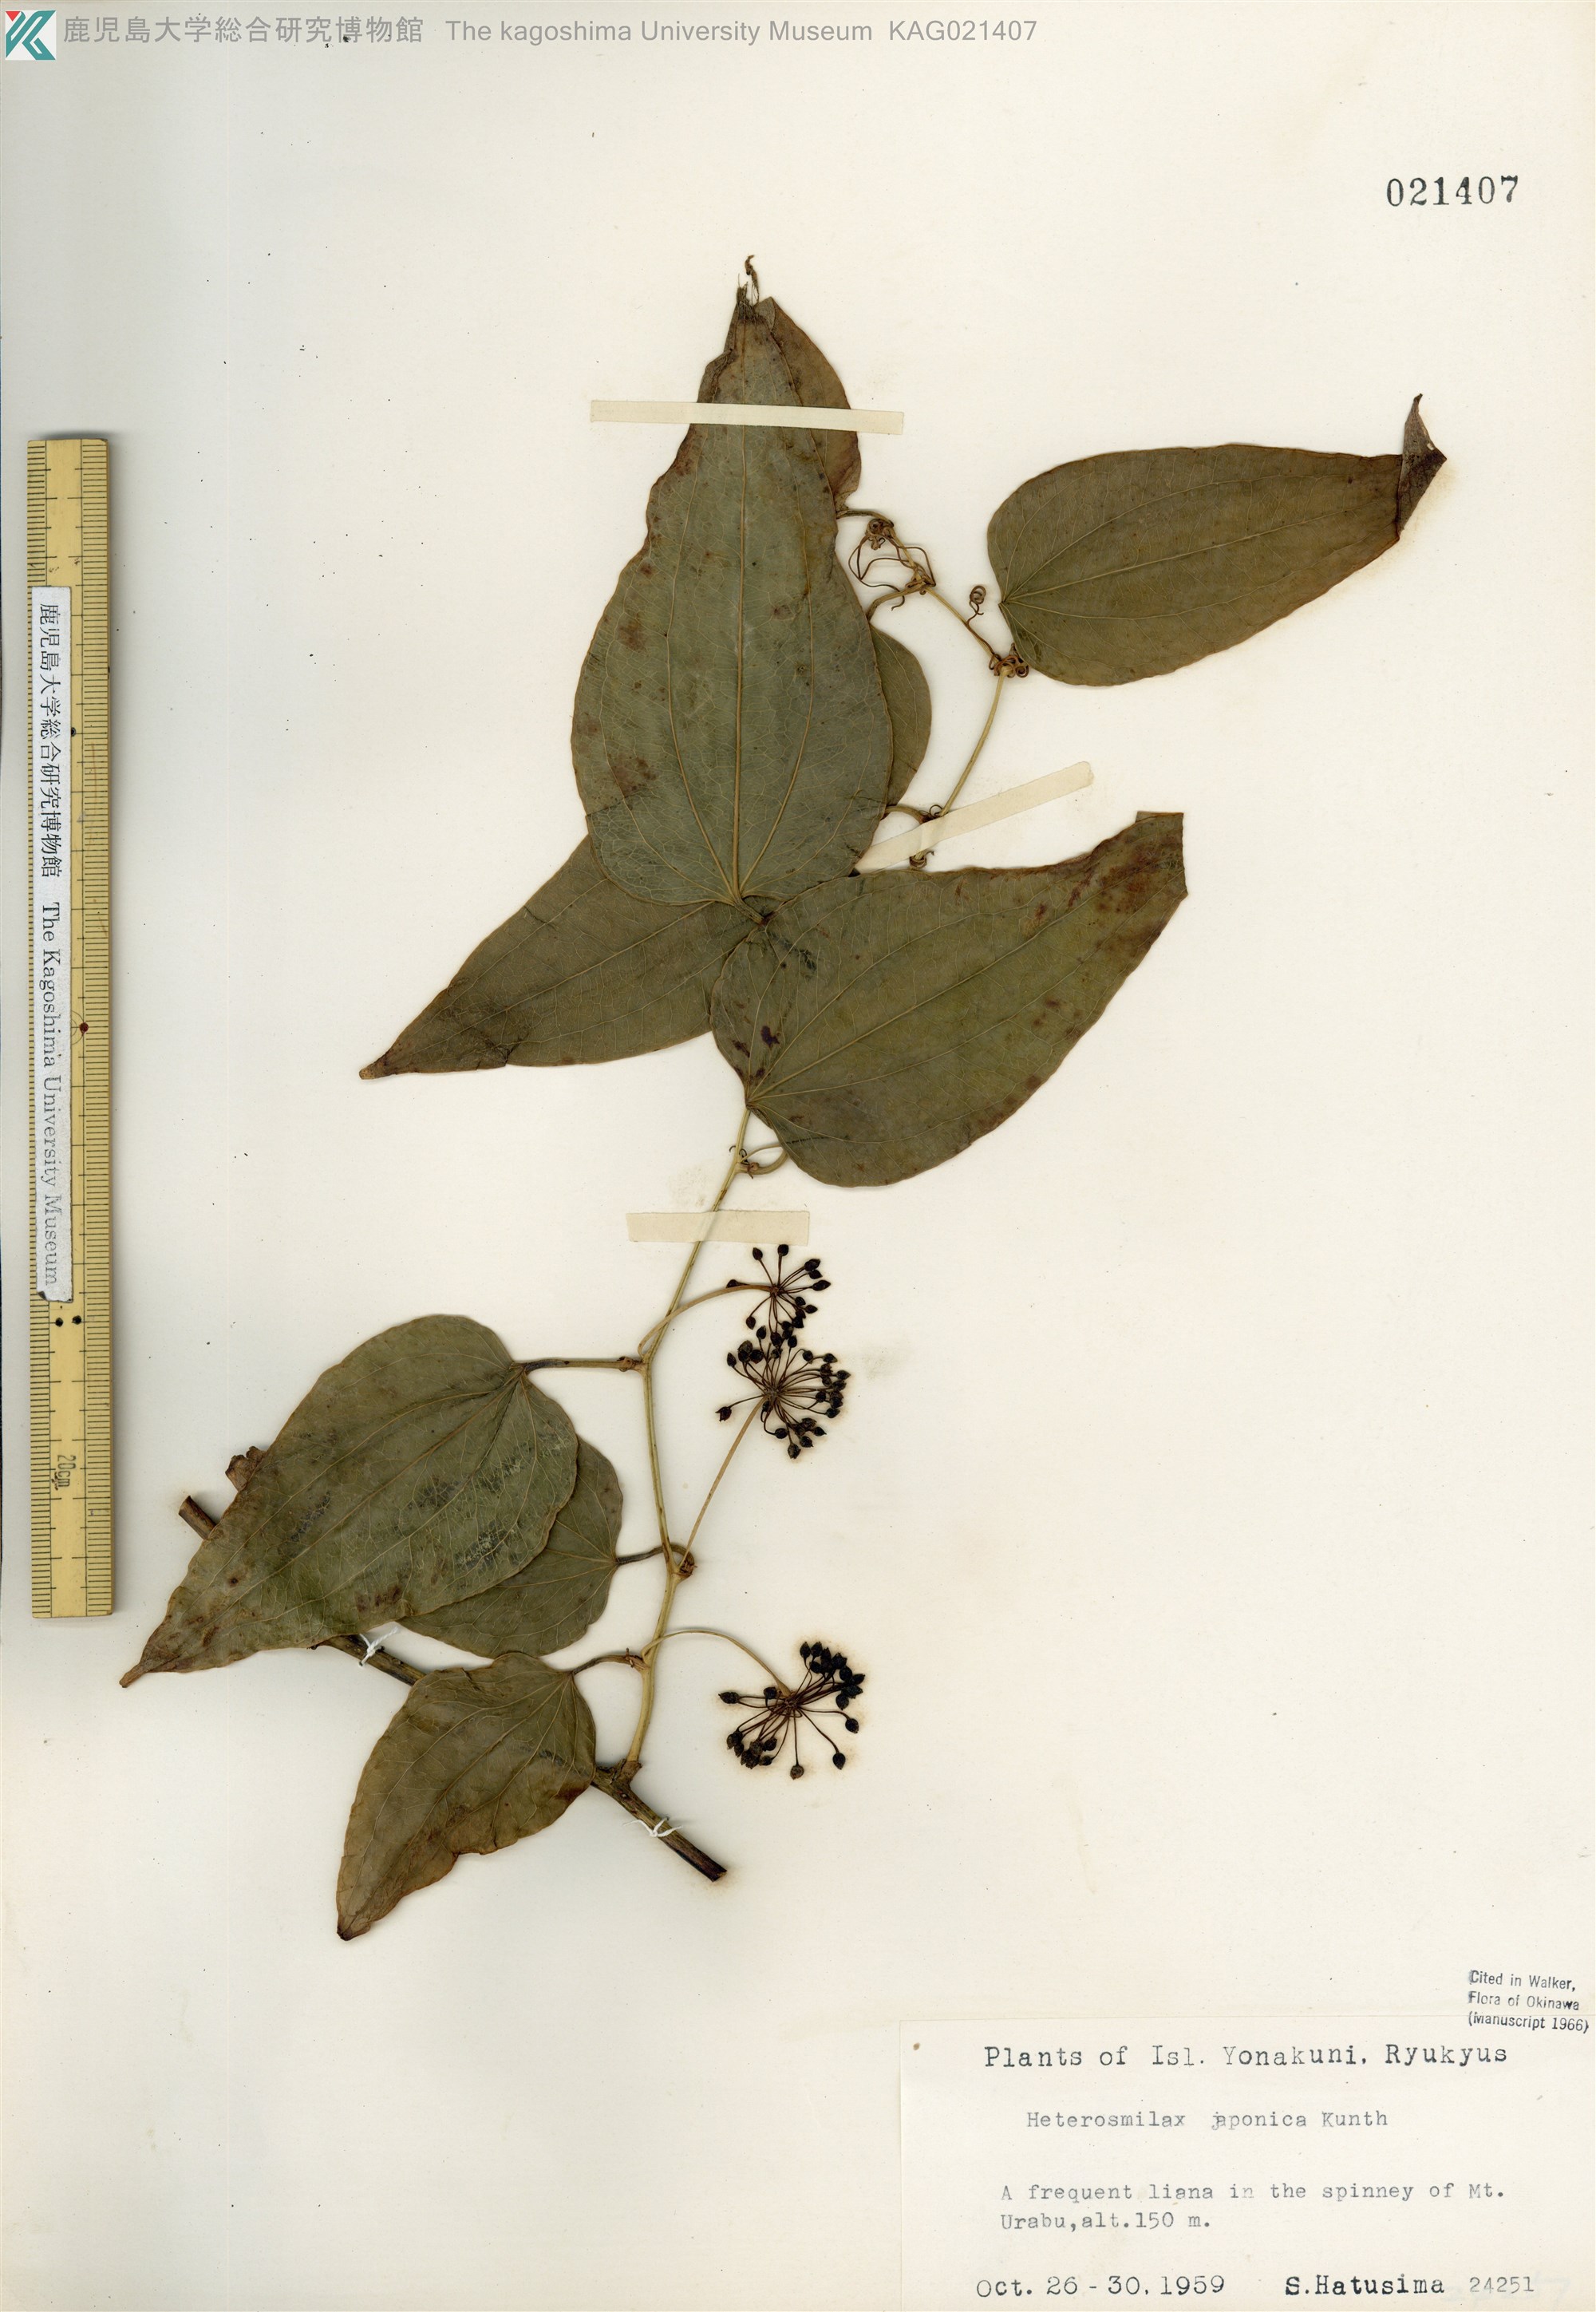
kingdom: Plantae
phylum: Tracheophyta
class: Liliopsida
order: Liliales
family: Smilacaceae
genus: Smilax
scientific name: Smilax insularis
